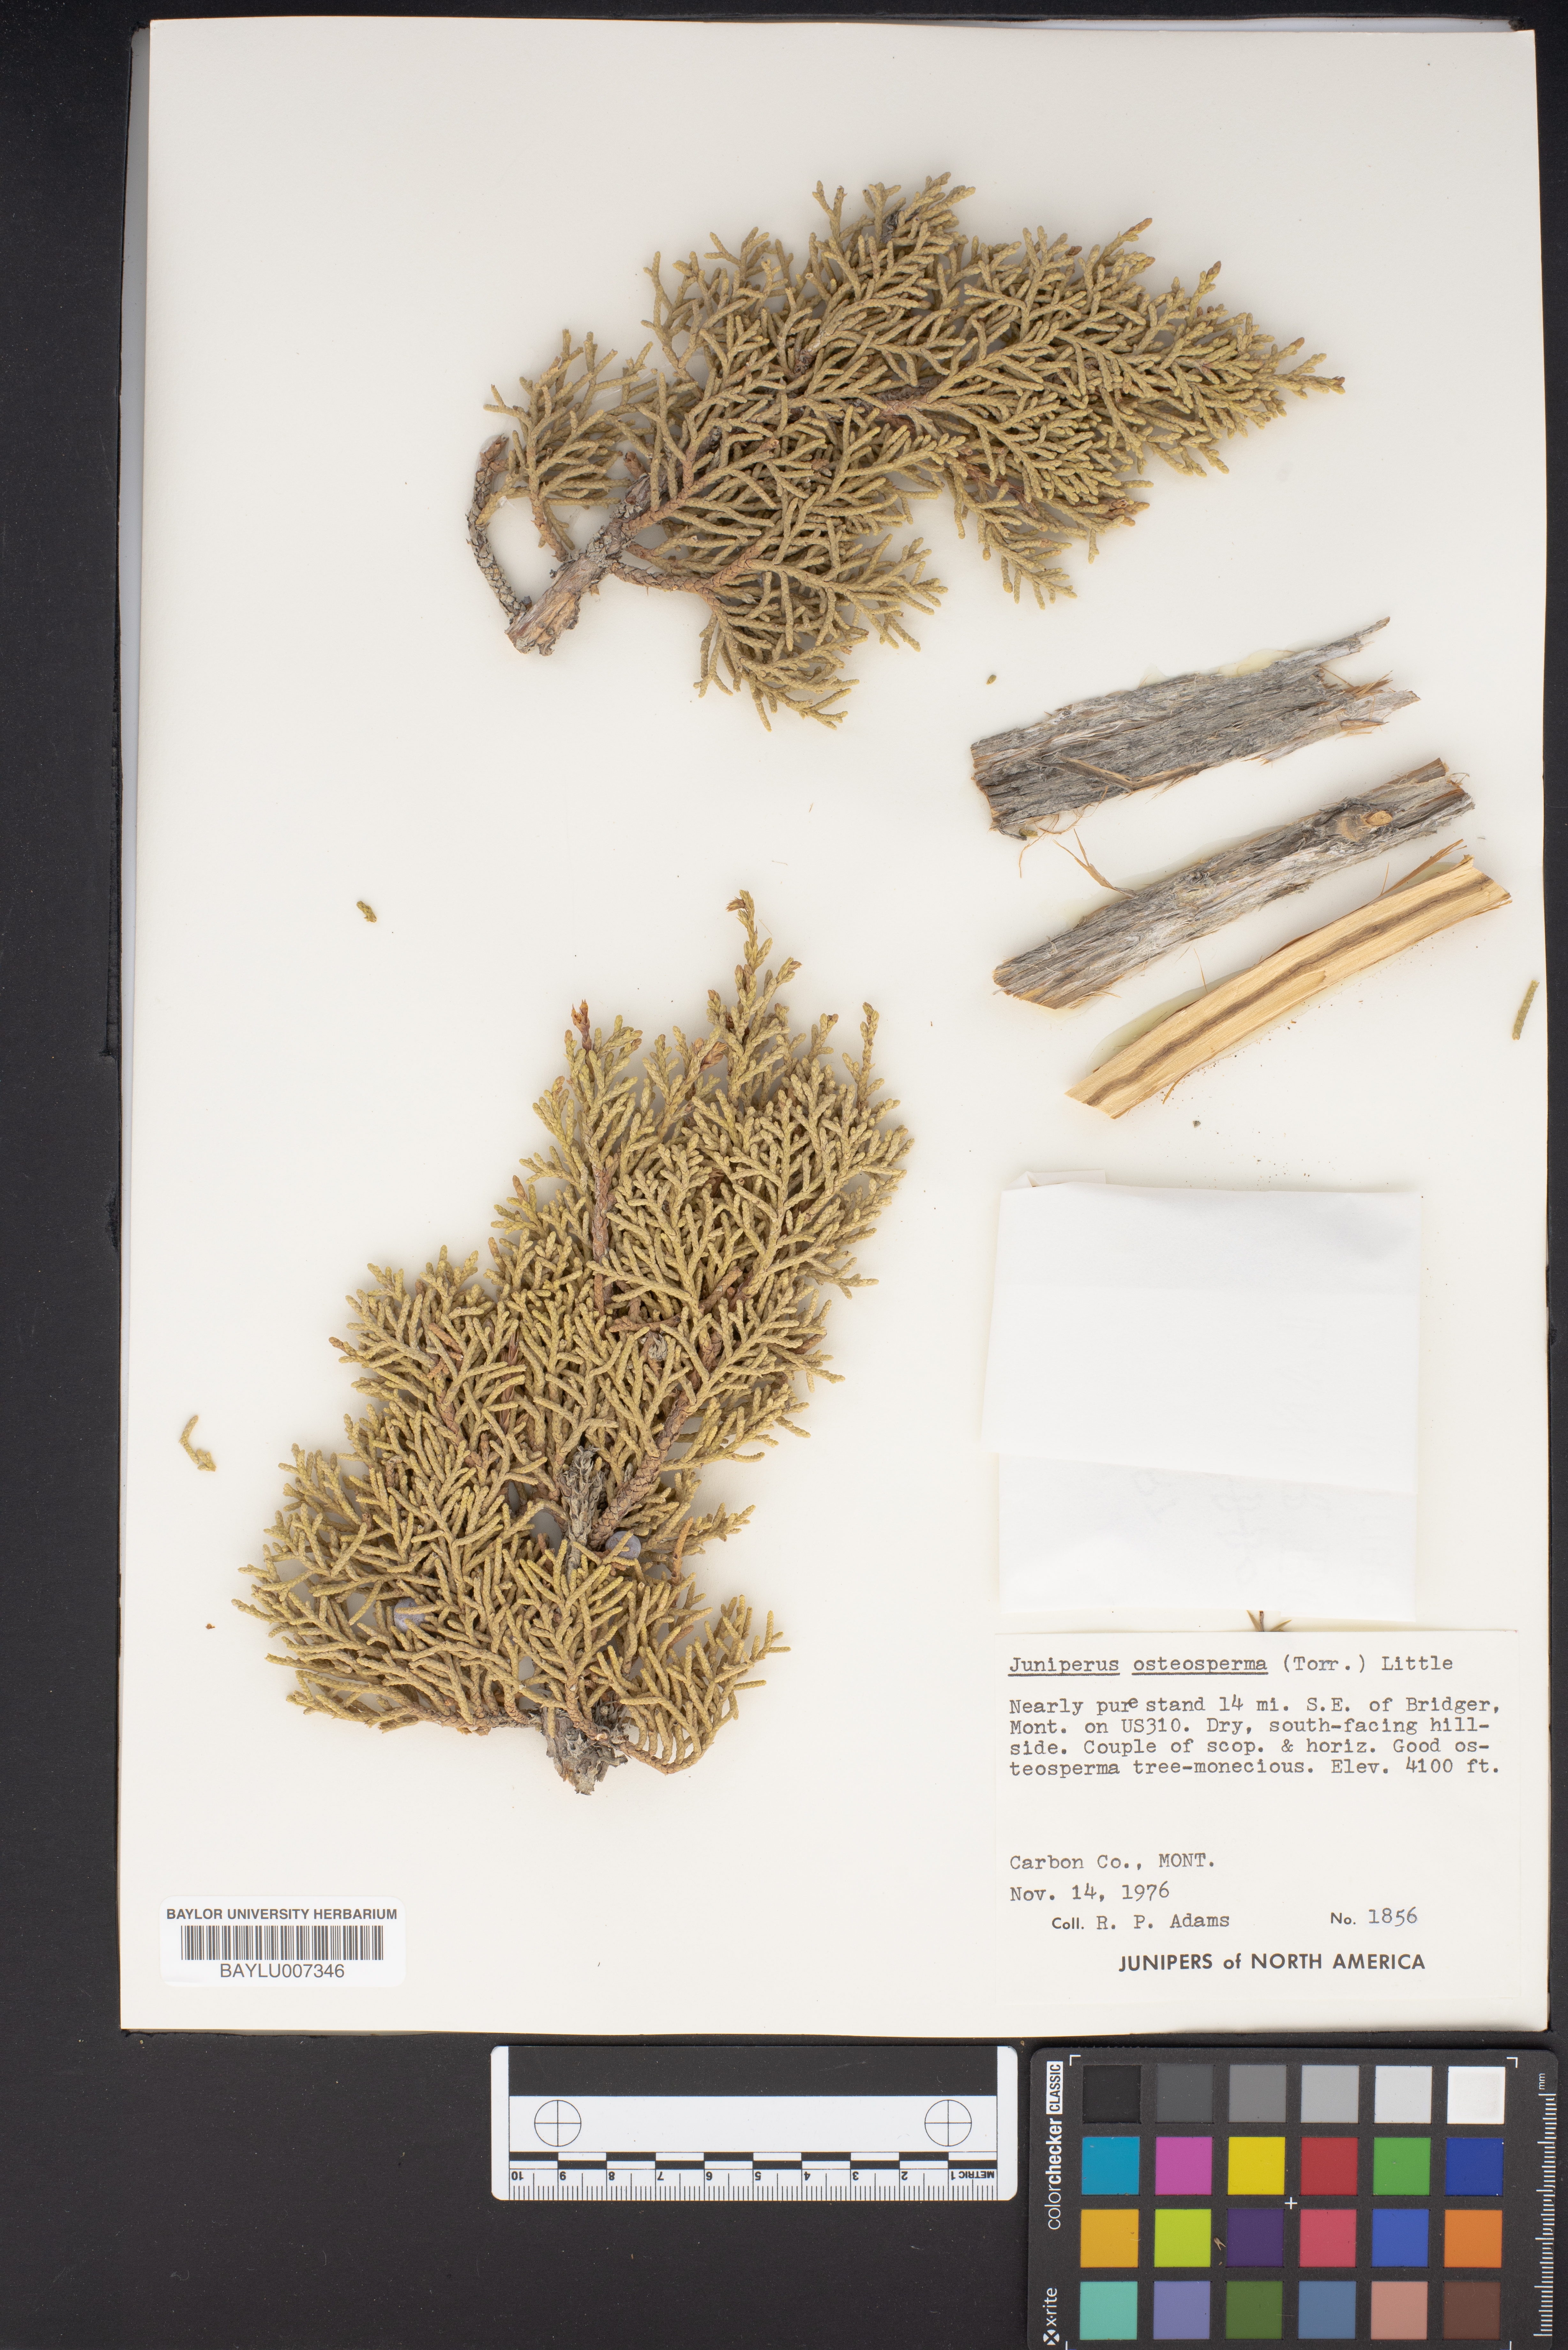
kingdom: Plantae
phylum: Tracheophyta
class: Pinopsida
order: Pinales
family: Cupressaceae
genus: Juniperus
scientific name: Juniperus osteosperma
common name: Utah juniper
